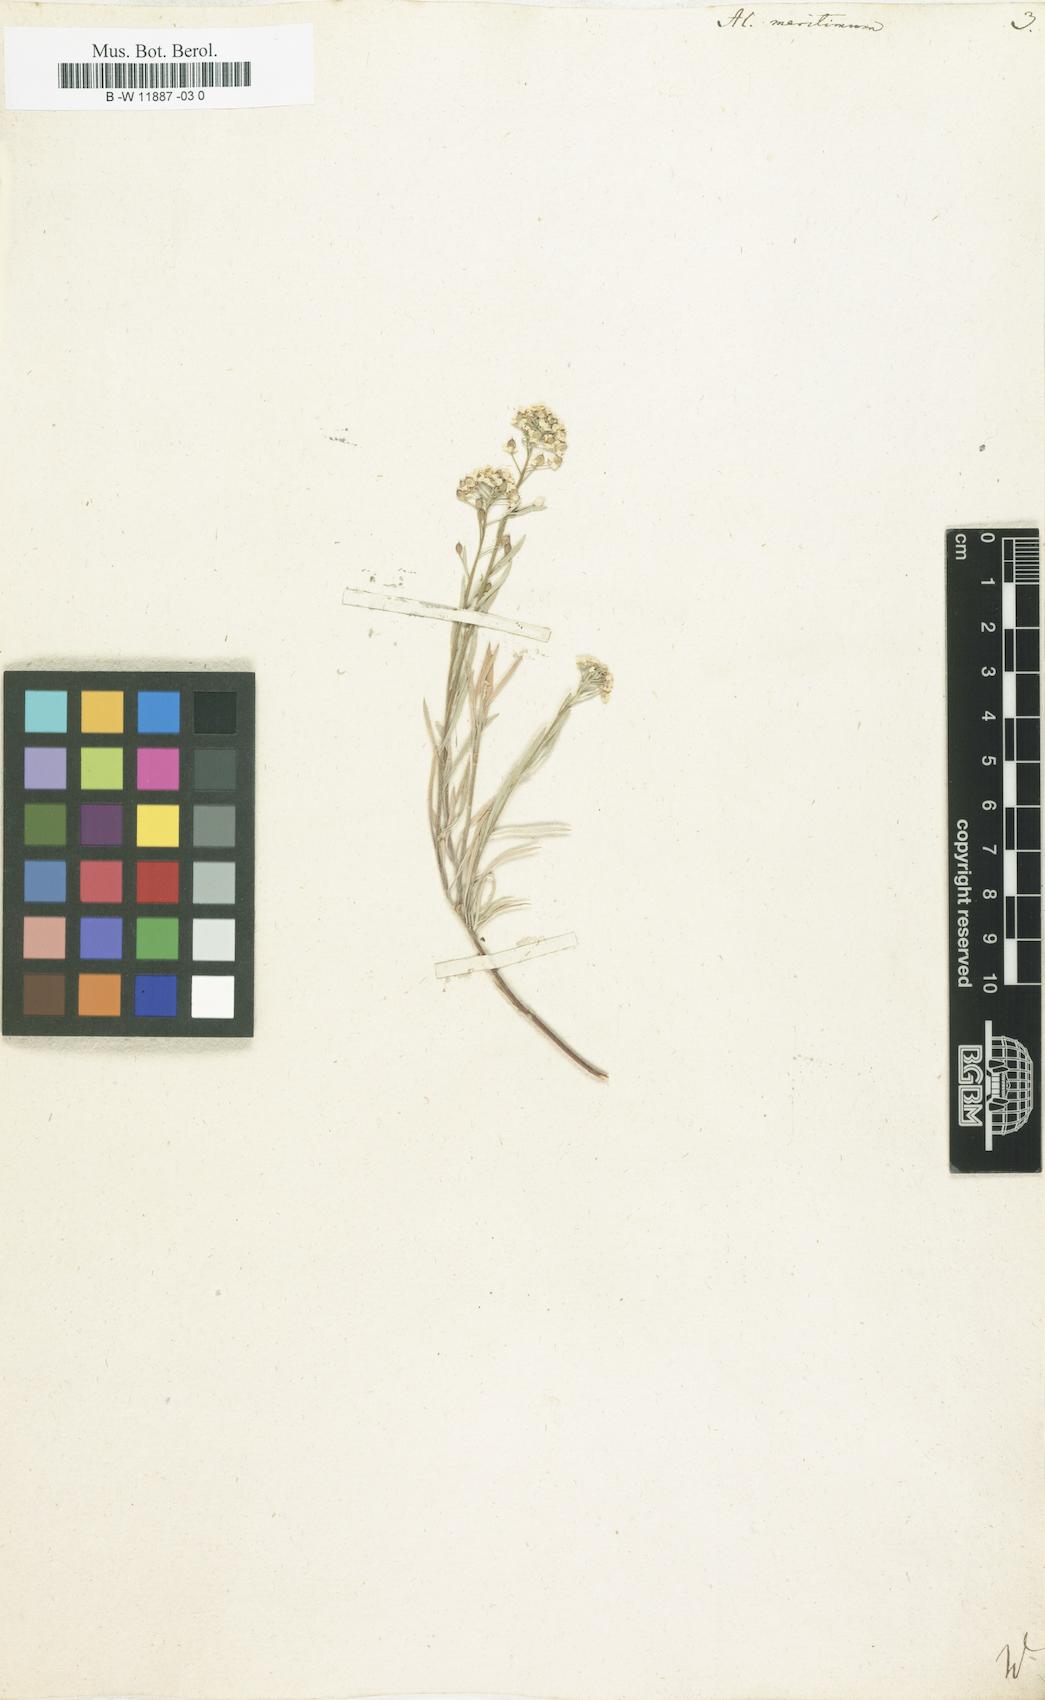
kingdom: Plantae
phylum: Tracheophyta
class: Magnoliopsida
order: Brassicales
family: Brassicaceae
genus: Lobularia
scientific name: Lobularia maritima
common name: Sweet alison
